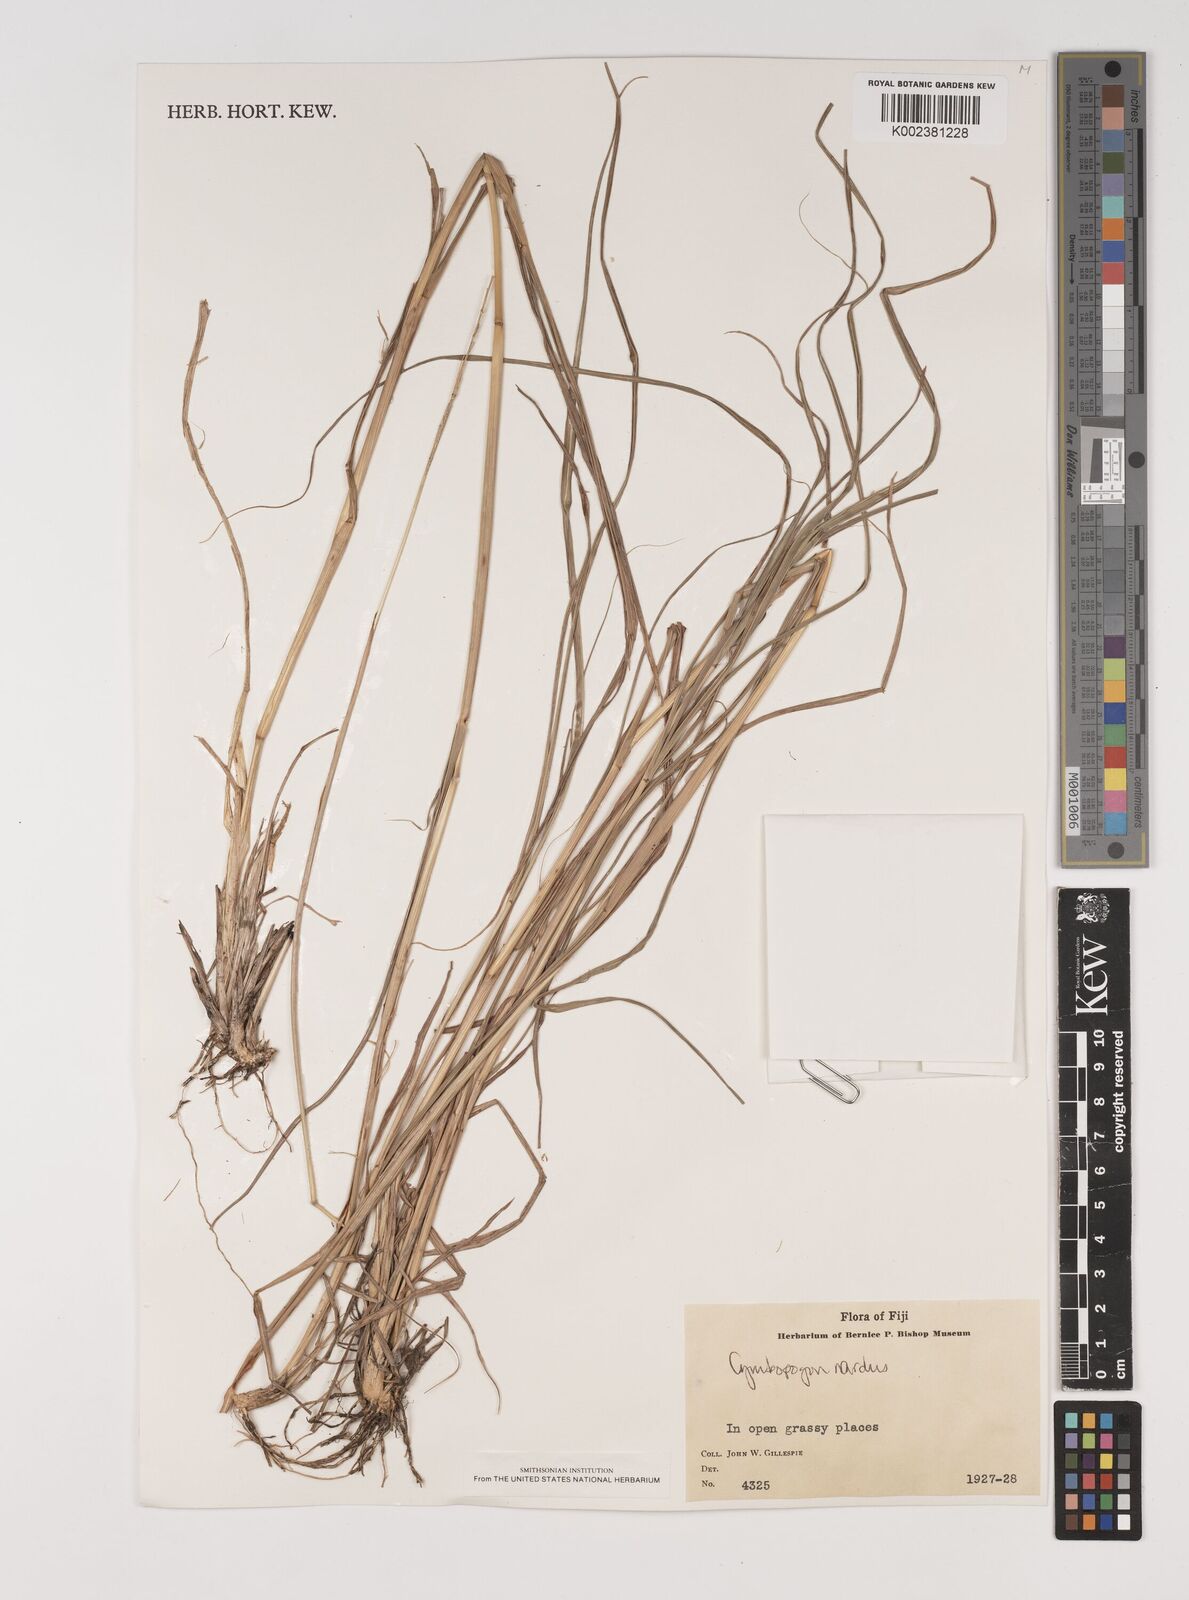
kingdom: Plantae
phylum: Tracheophyta
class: Liliopsida
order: Poales
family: Poaceae
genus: Bothriochloa
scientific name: Bothriochloa bladhii
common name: Caucasian bluestem
